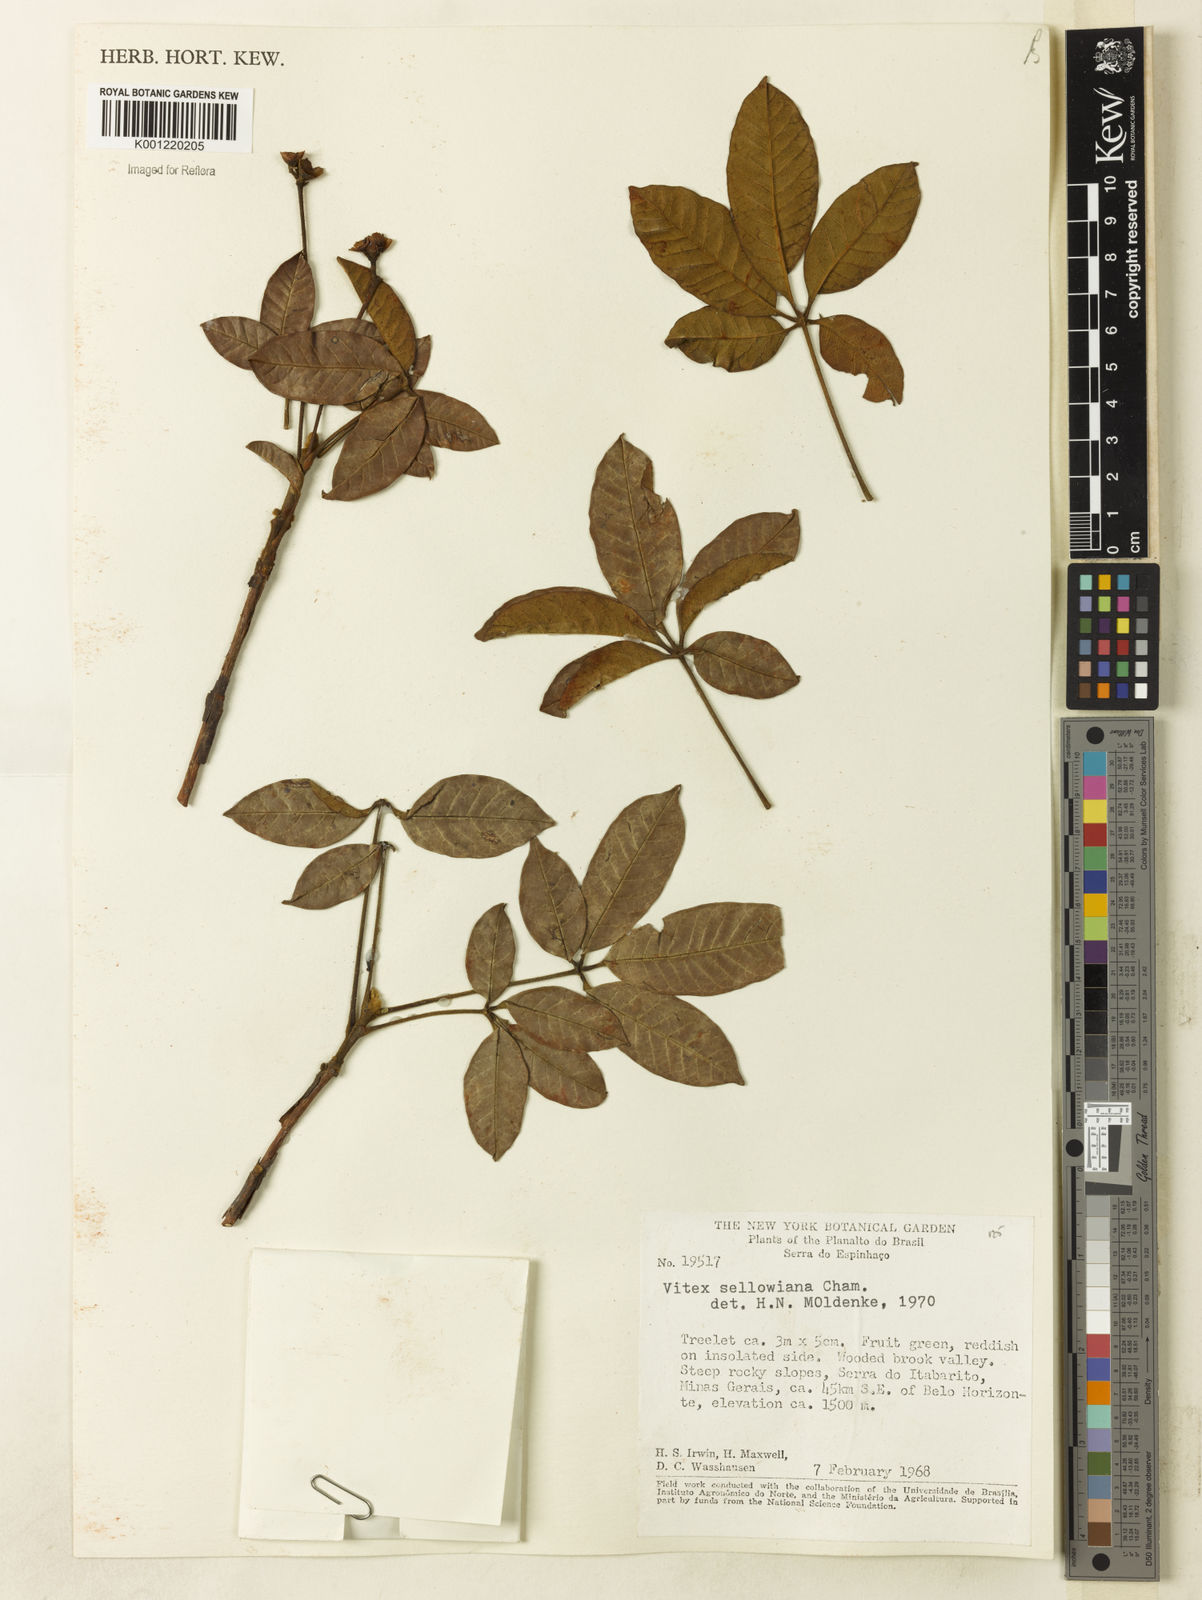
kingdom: Plantae
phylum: Tracheophyta
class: Magnoliopsida
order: Lamiales
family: Lamiaceae
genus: Vitex
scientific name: Vitex sellowiana
